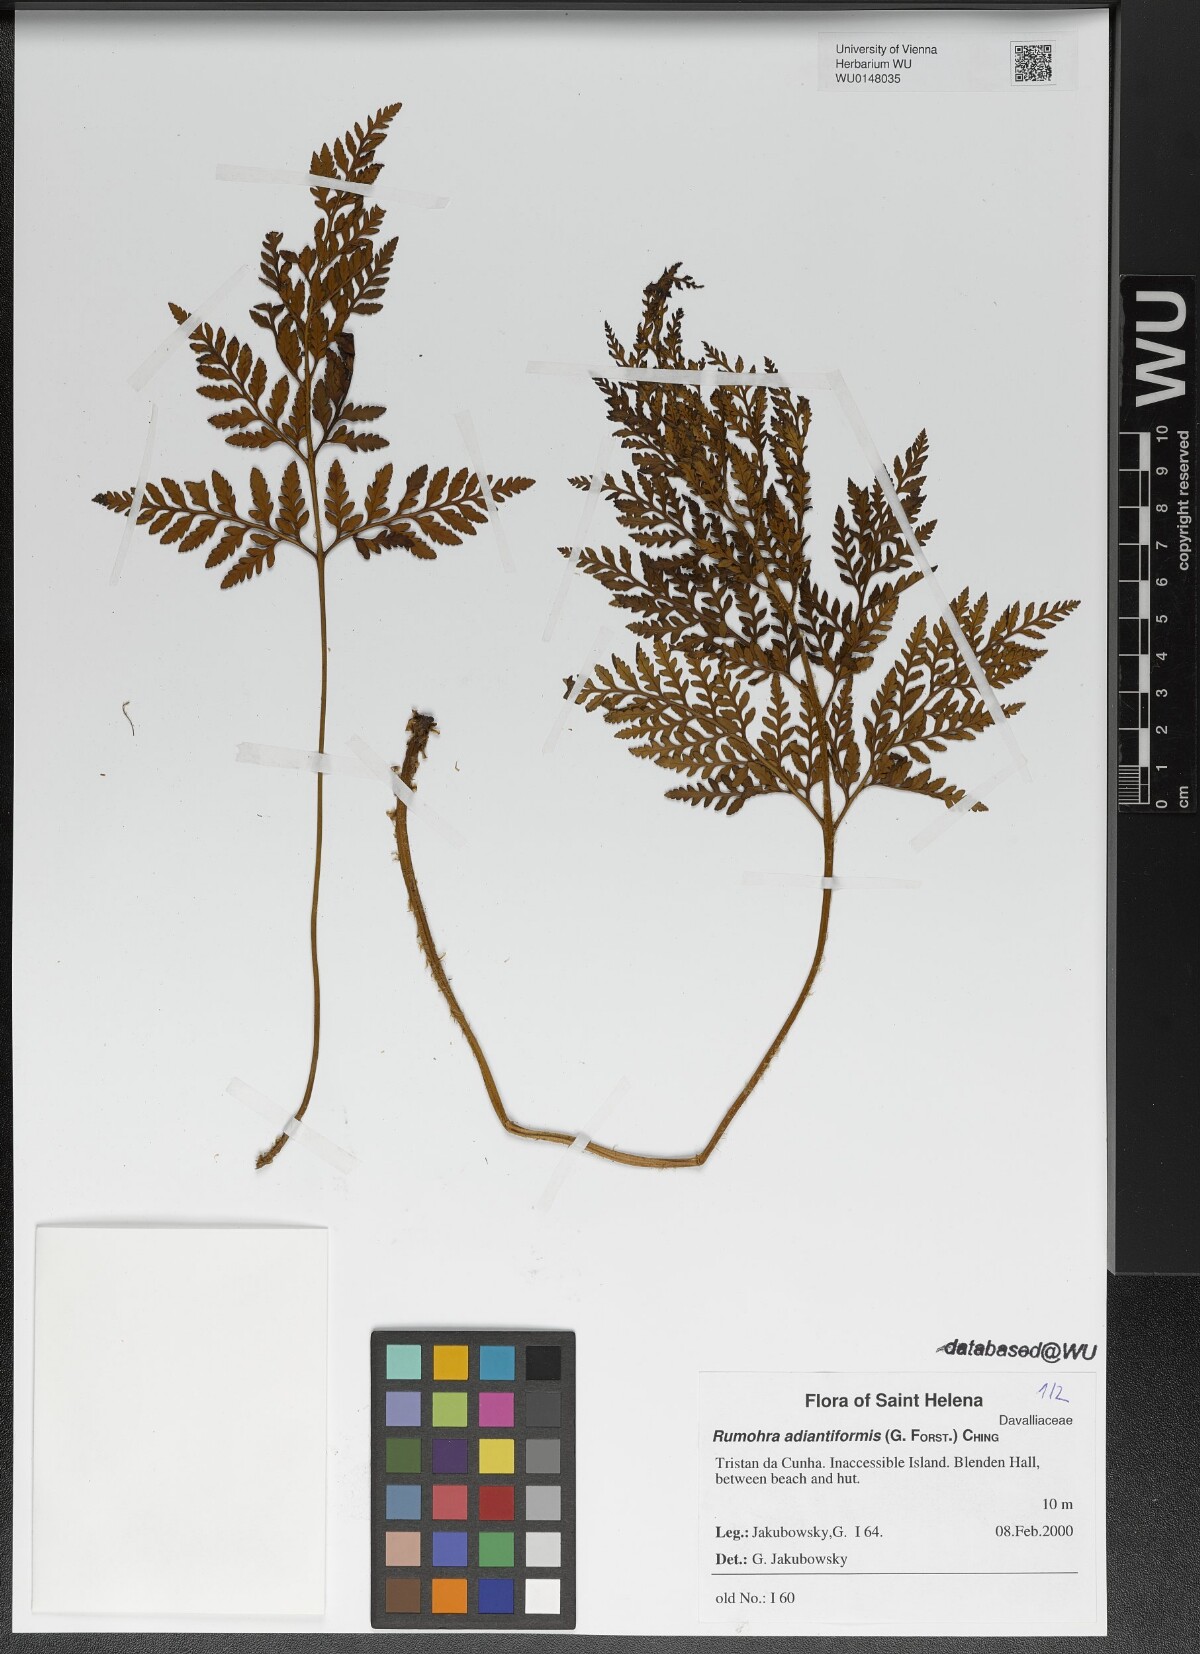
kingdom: Plantae
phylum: Tracheophyta
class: Polypodiopsida
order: Polypodiales
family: Dryopteridaceae
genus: Rumohra
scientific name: Rumohra adiantiformis
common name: Leather fern
